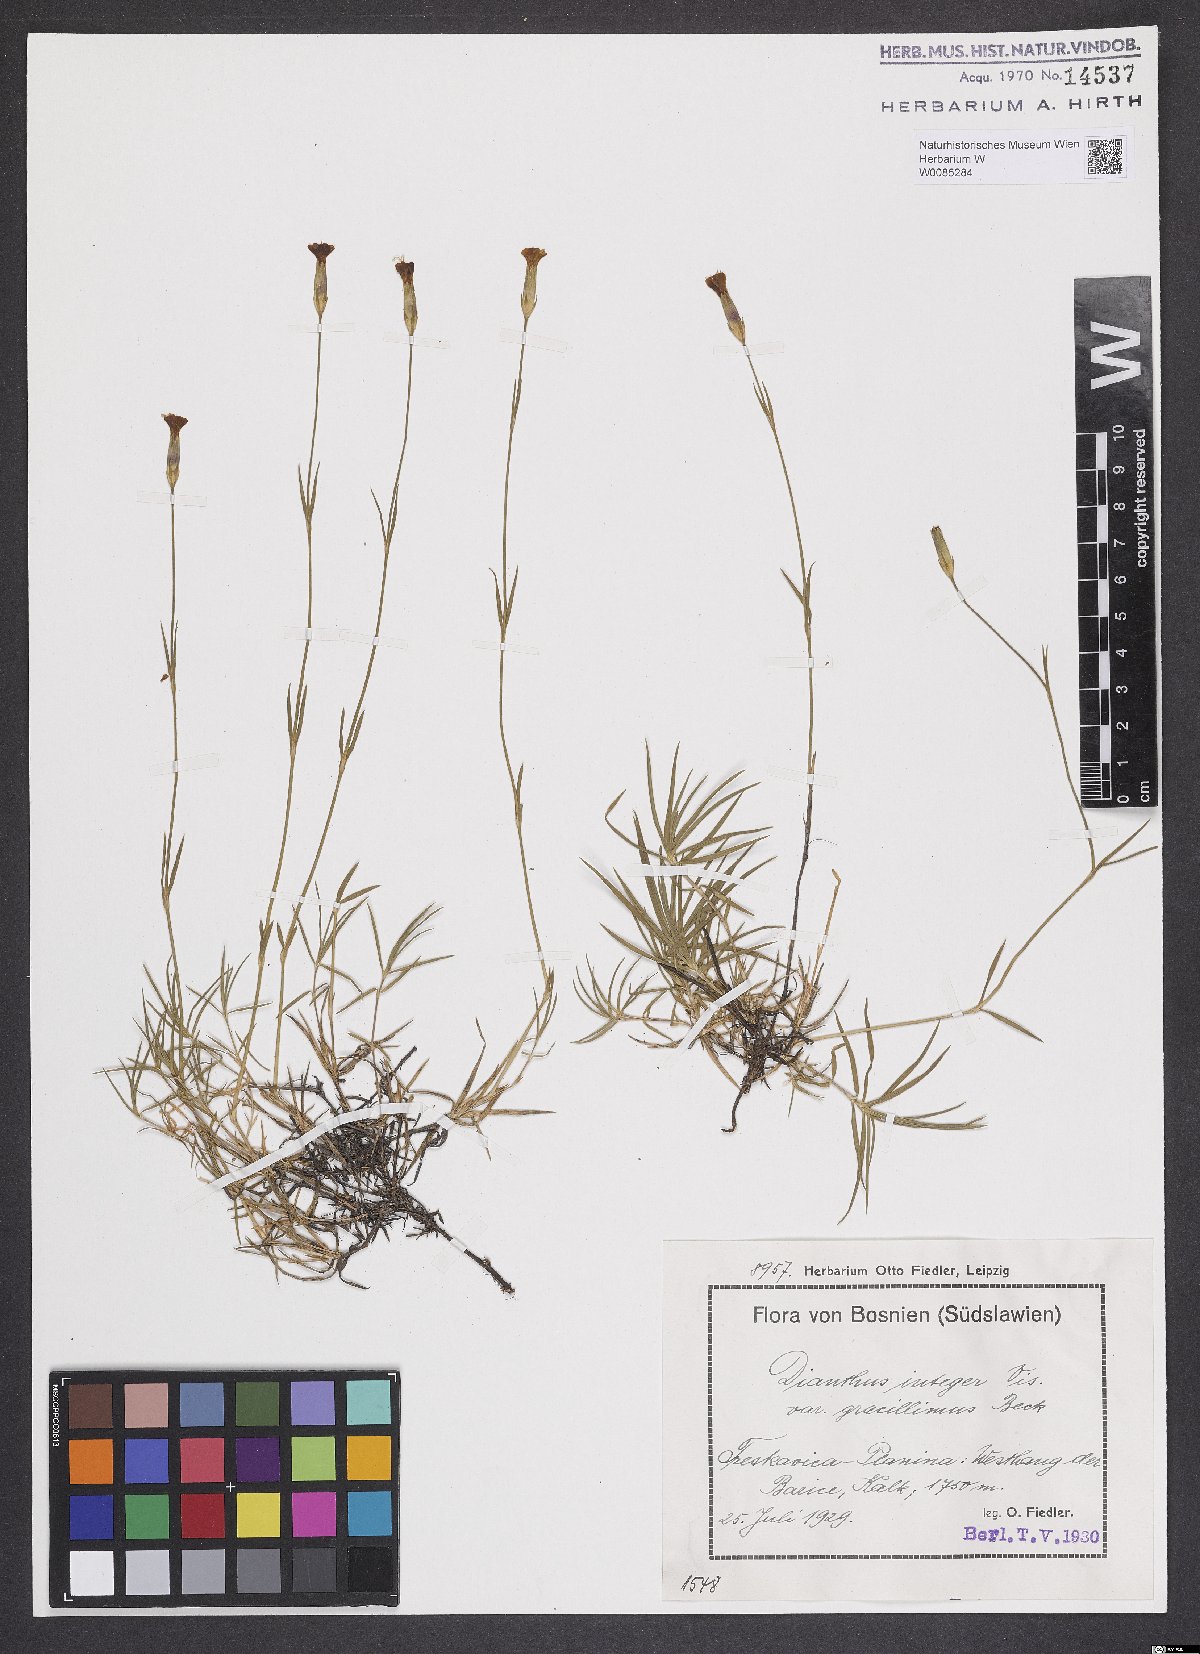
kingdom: Plantae
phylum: Tracheophyta
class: Magnoliopsida
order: Caryophyllales
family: Caryophyllaceae
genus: Dianthus
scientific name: Dianthus cretaceus
